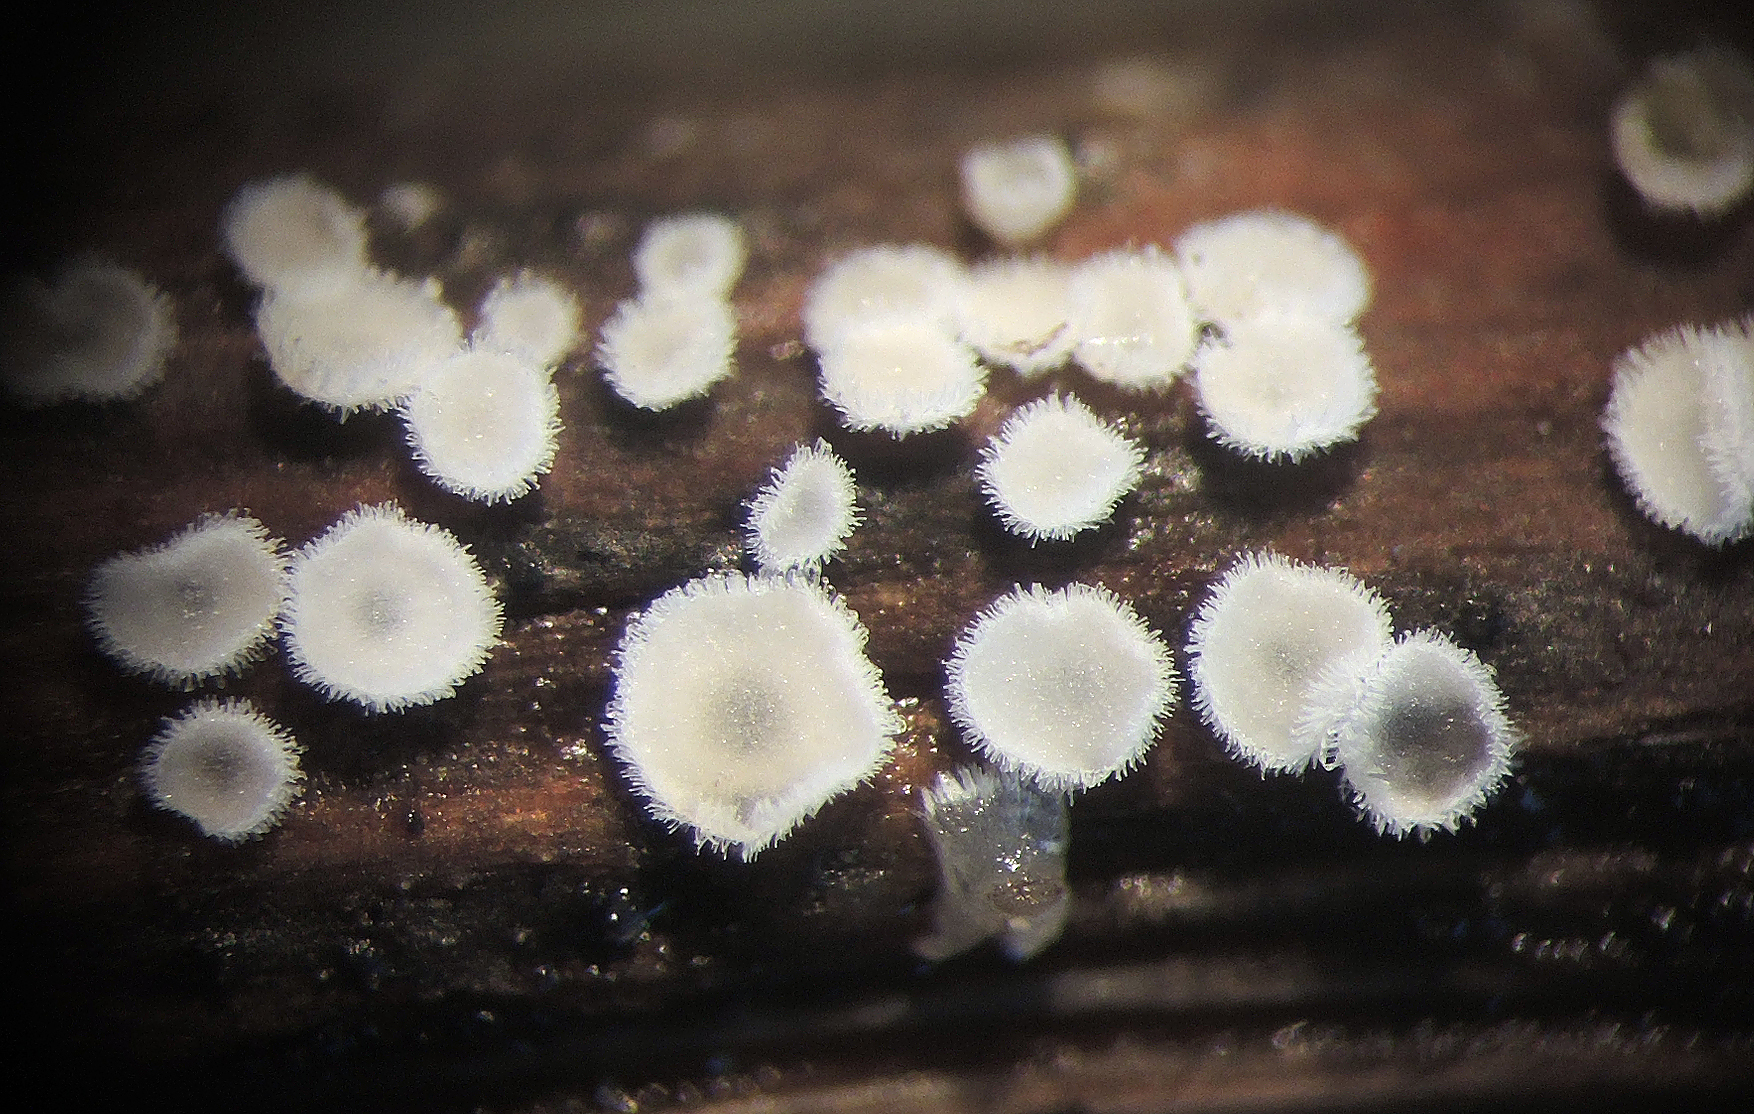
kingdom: Fungi
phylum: Basidiomycota
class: Agaricomycetes
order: Agaricales
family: Niaceae
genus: Lachnella
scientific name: Lachnella villosa
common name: hvid frynserede
